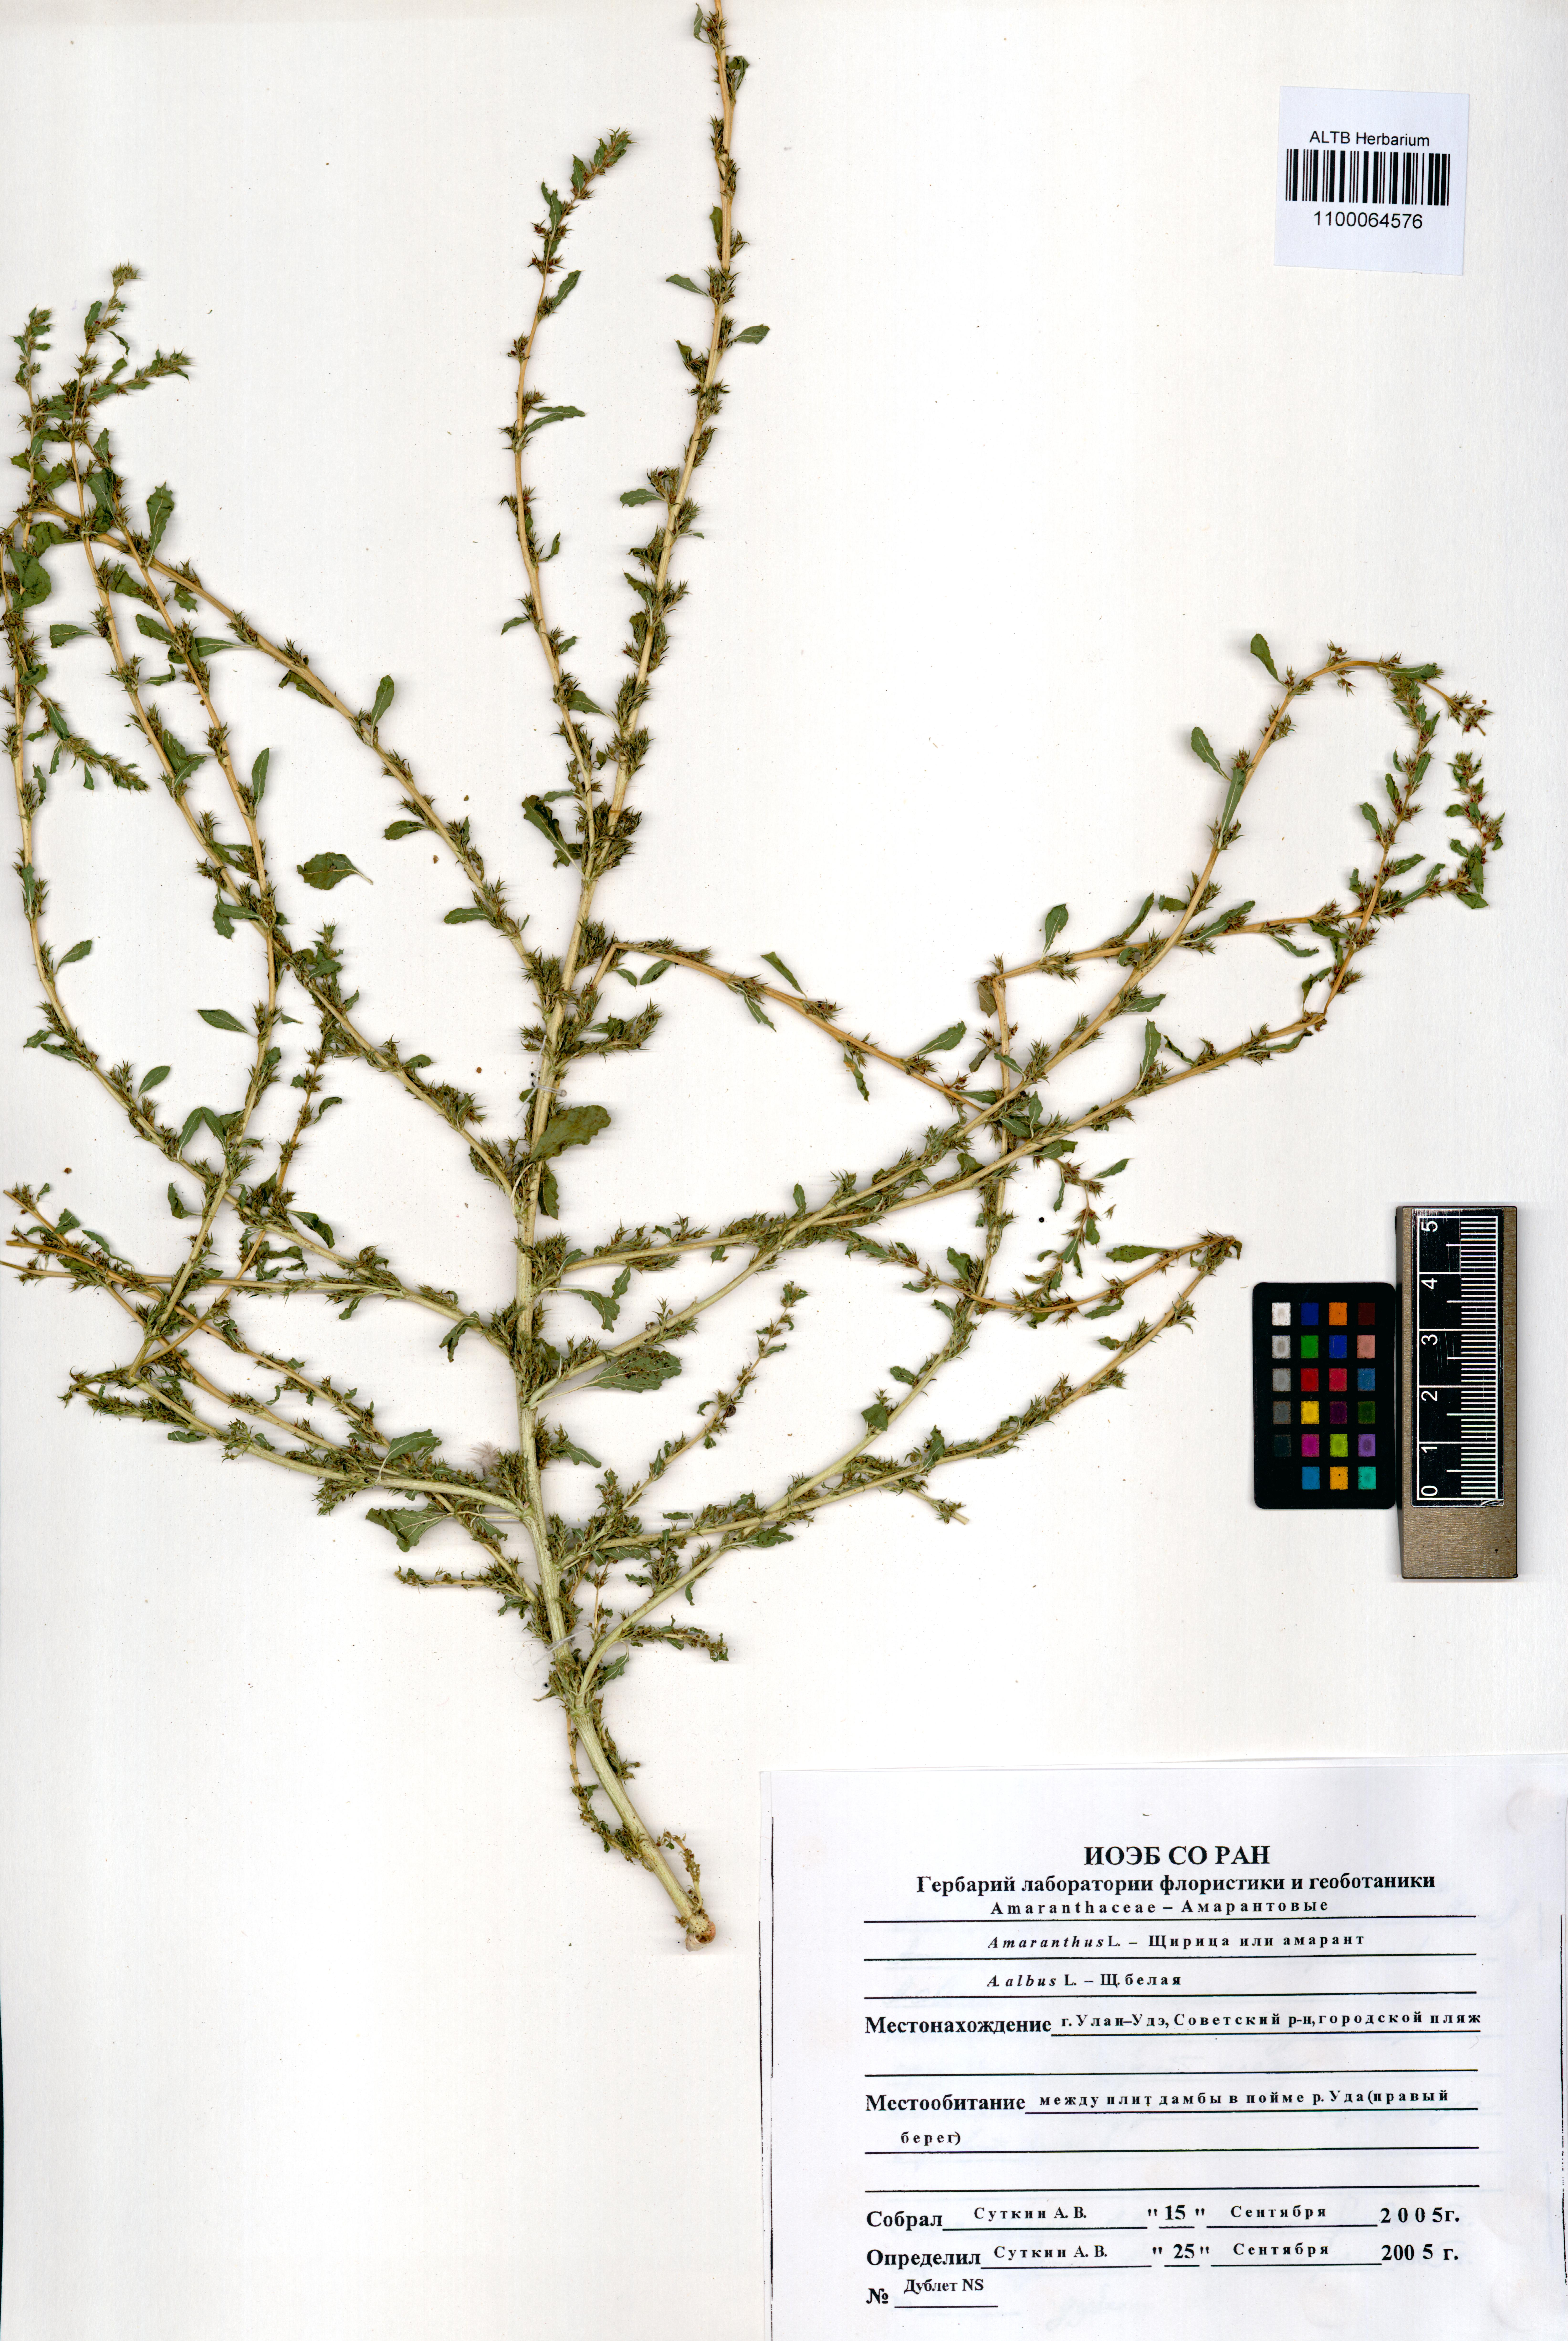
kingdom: Plantae
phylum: Tracheophyta
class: Magnoliopsida
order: Caryophyllales
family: Amaranthaceae
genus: Amaranthus
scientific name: Amaranthus albus
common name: White pigweed
